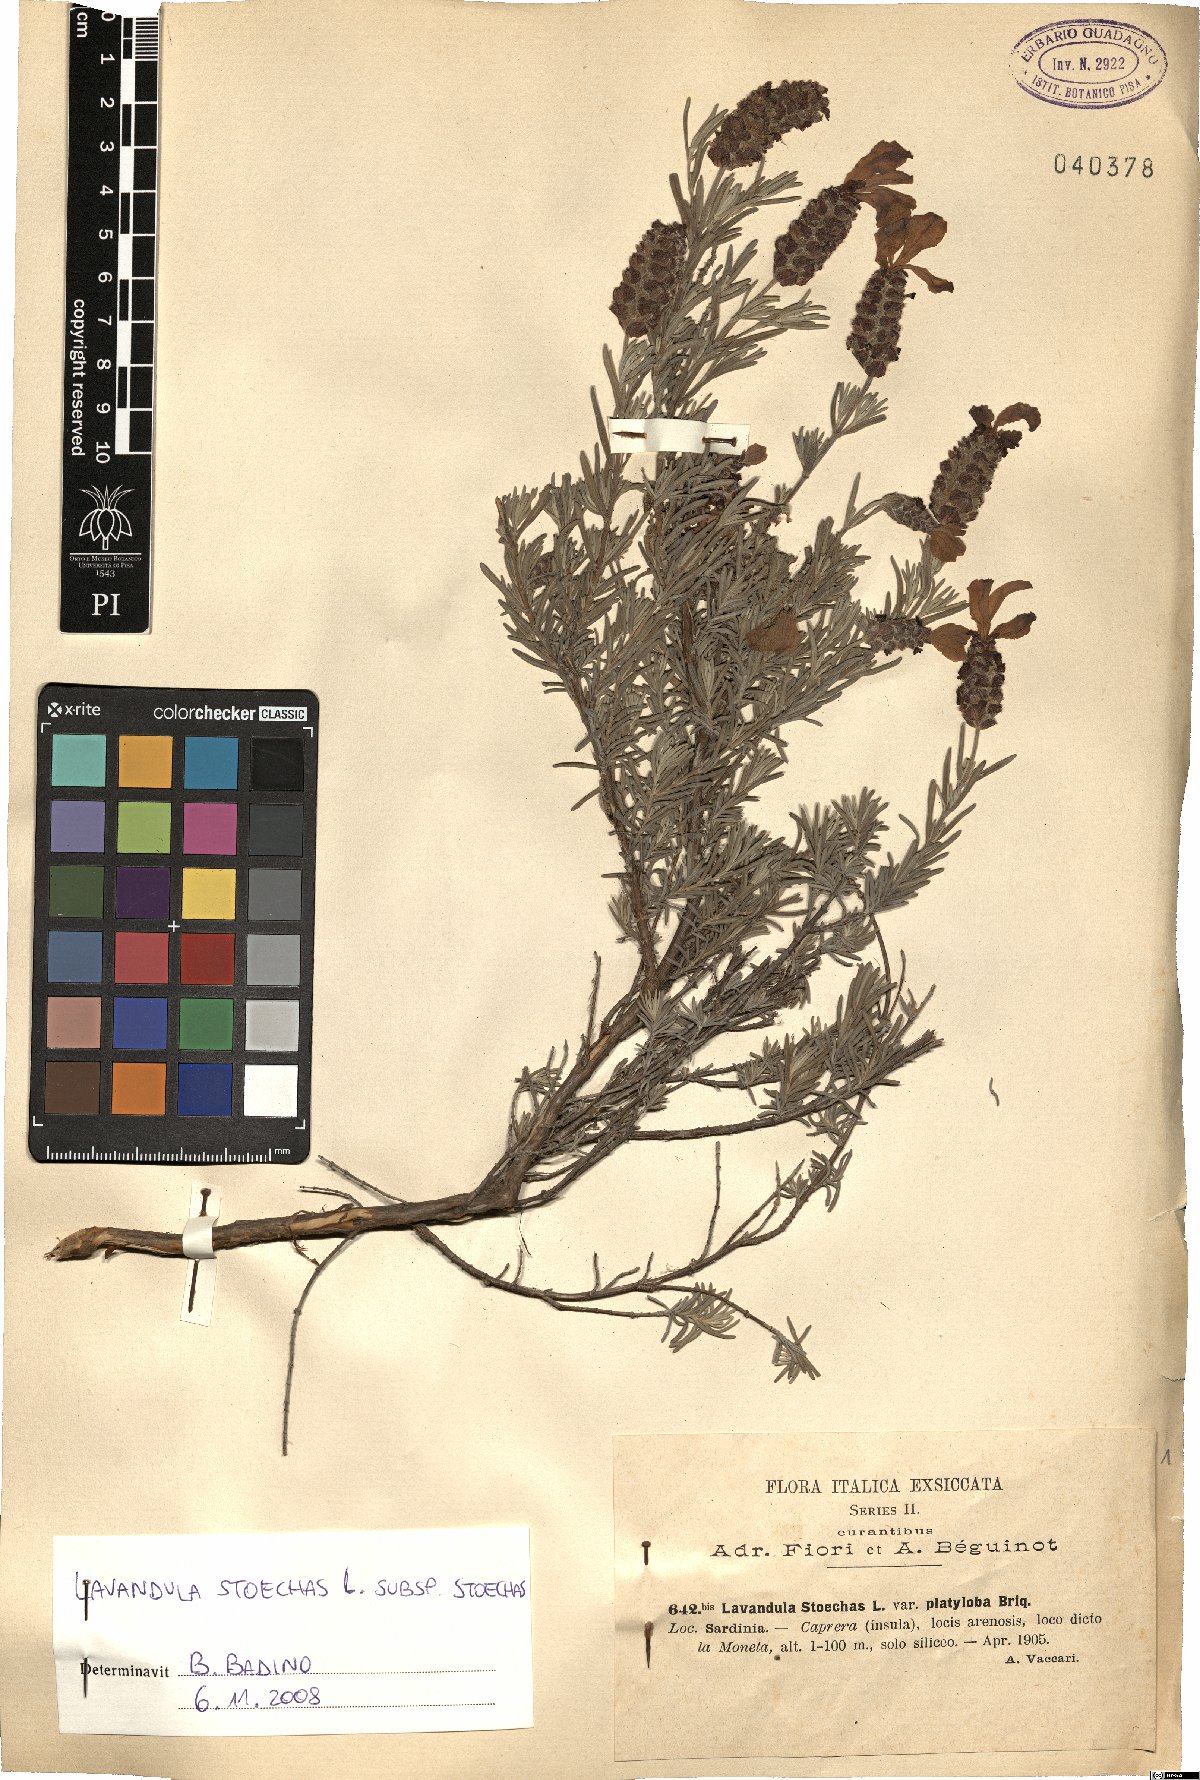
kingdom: Plantae
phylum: Tracheophyta
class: Magnoliopsida
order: Lamiales
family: Lamiaceae
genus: Lavandula
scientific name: Lavandula stoechas
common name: French lavender
